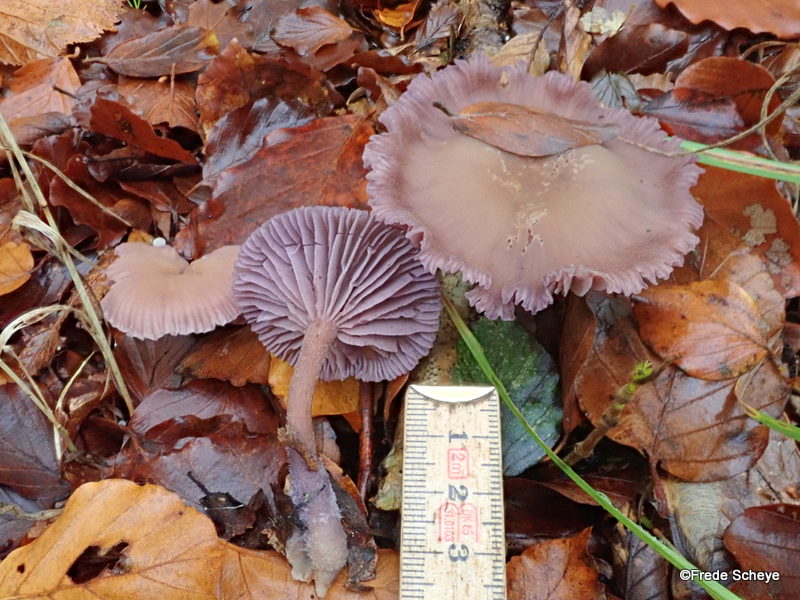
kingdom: Fungi
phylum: Basidiomycota
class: Agaricomycetes
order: Agaricales
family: Hydnangiaceae
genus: Laccaria
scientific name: Laccaria amethystina
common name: violet ametysthat
